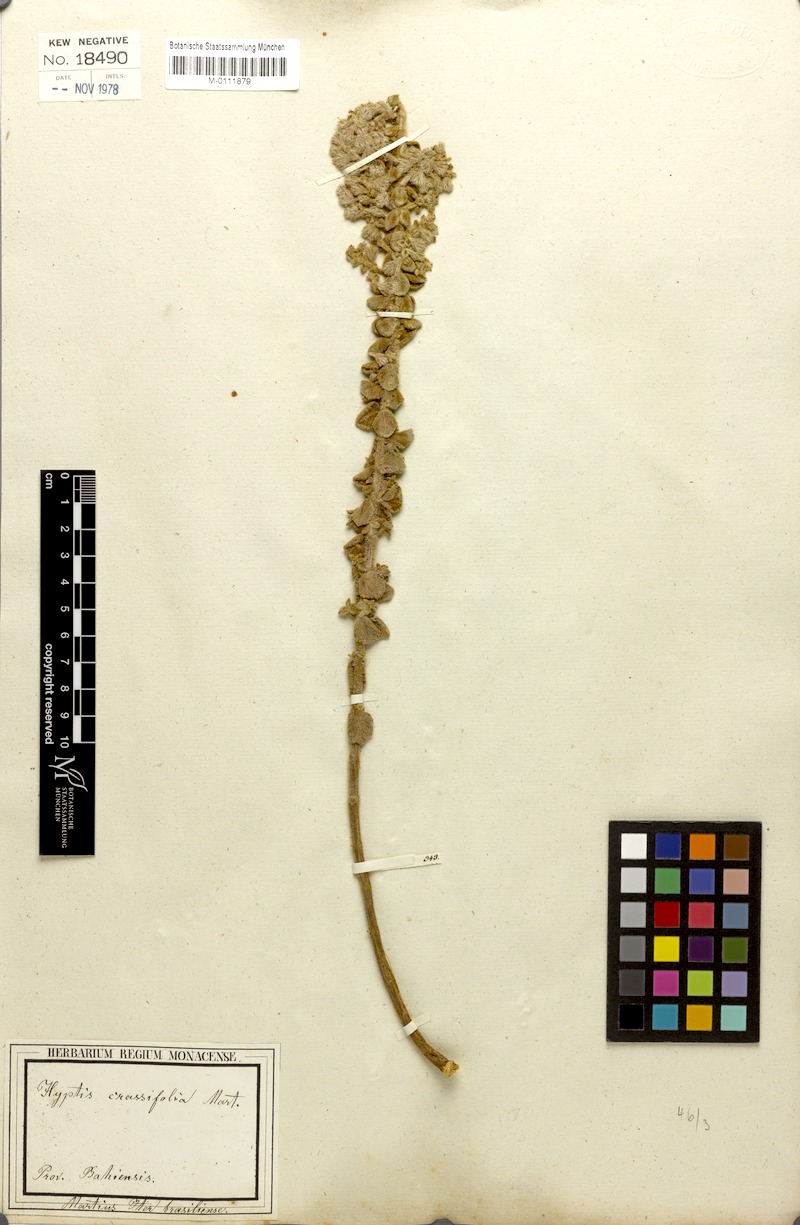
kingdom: Plantae
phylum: Tracheophyta
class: Magnoliopsida
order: Lamiales
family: Lamiaceae
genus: Oocephalus
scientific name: Oocephalus crassifolius
